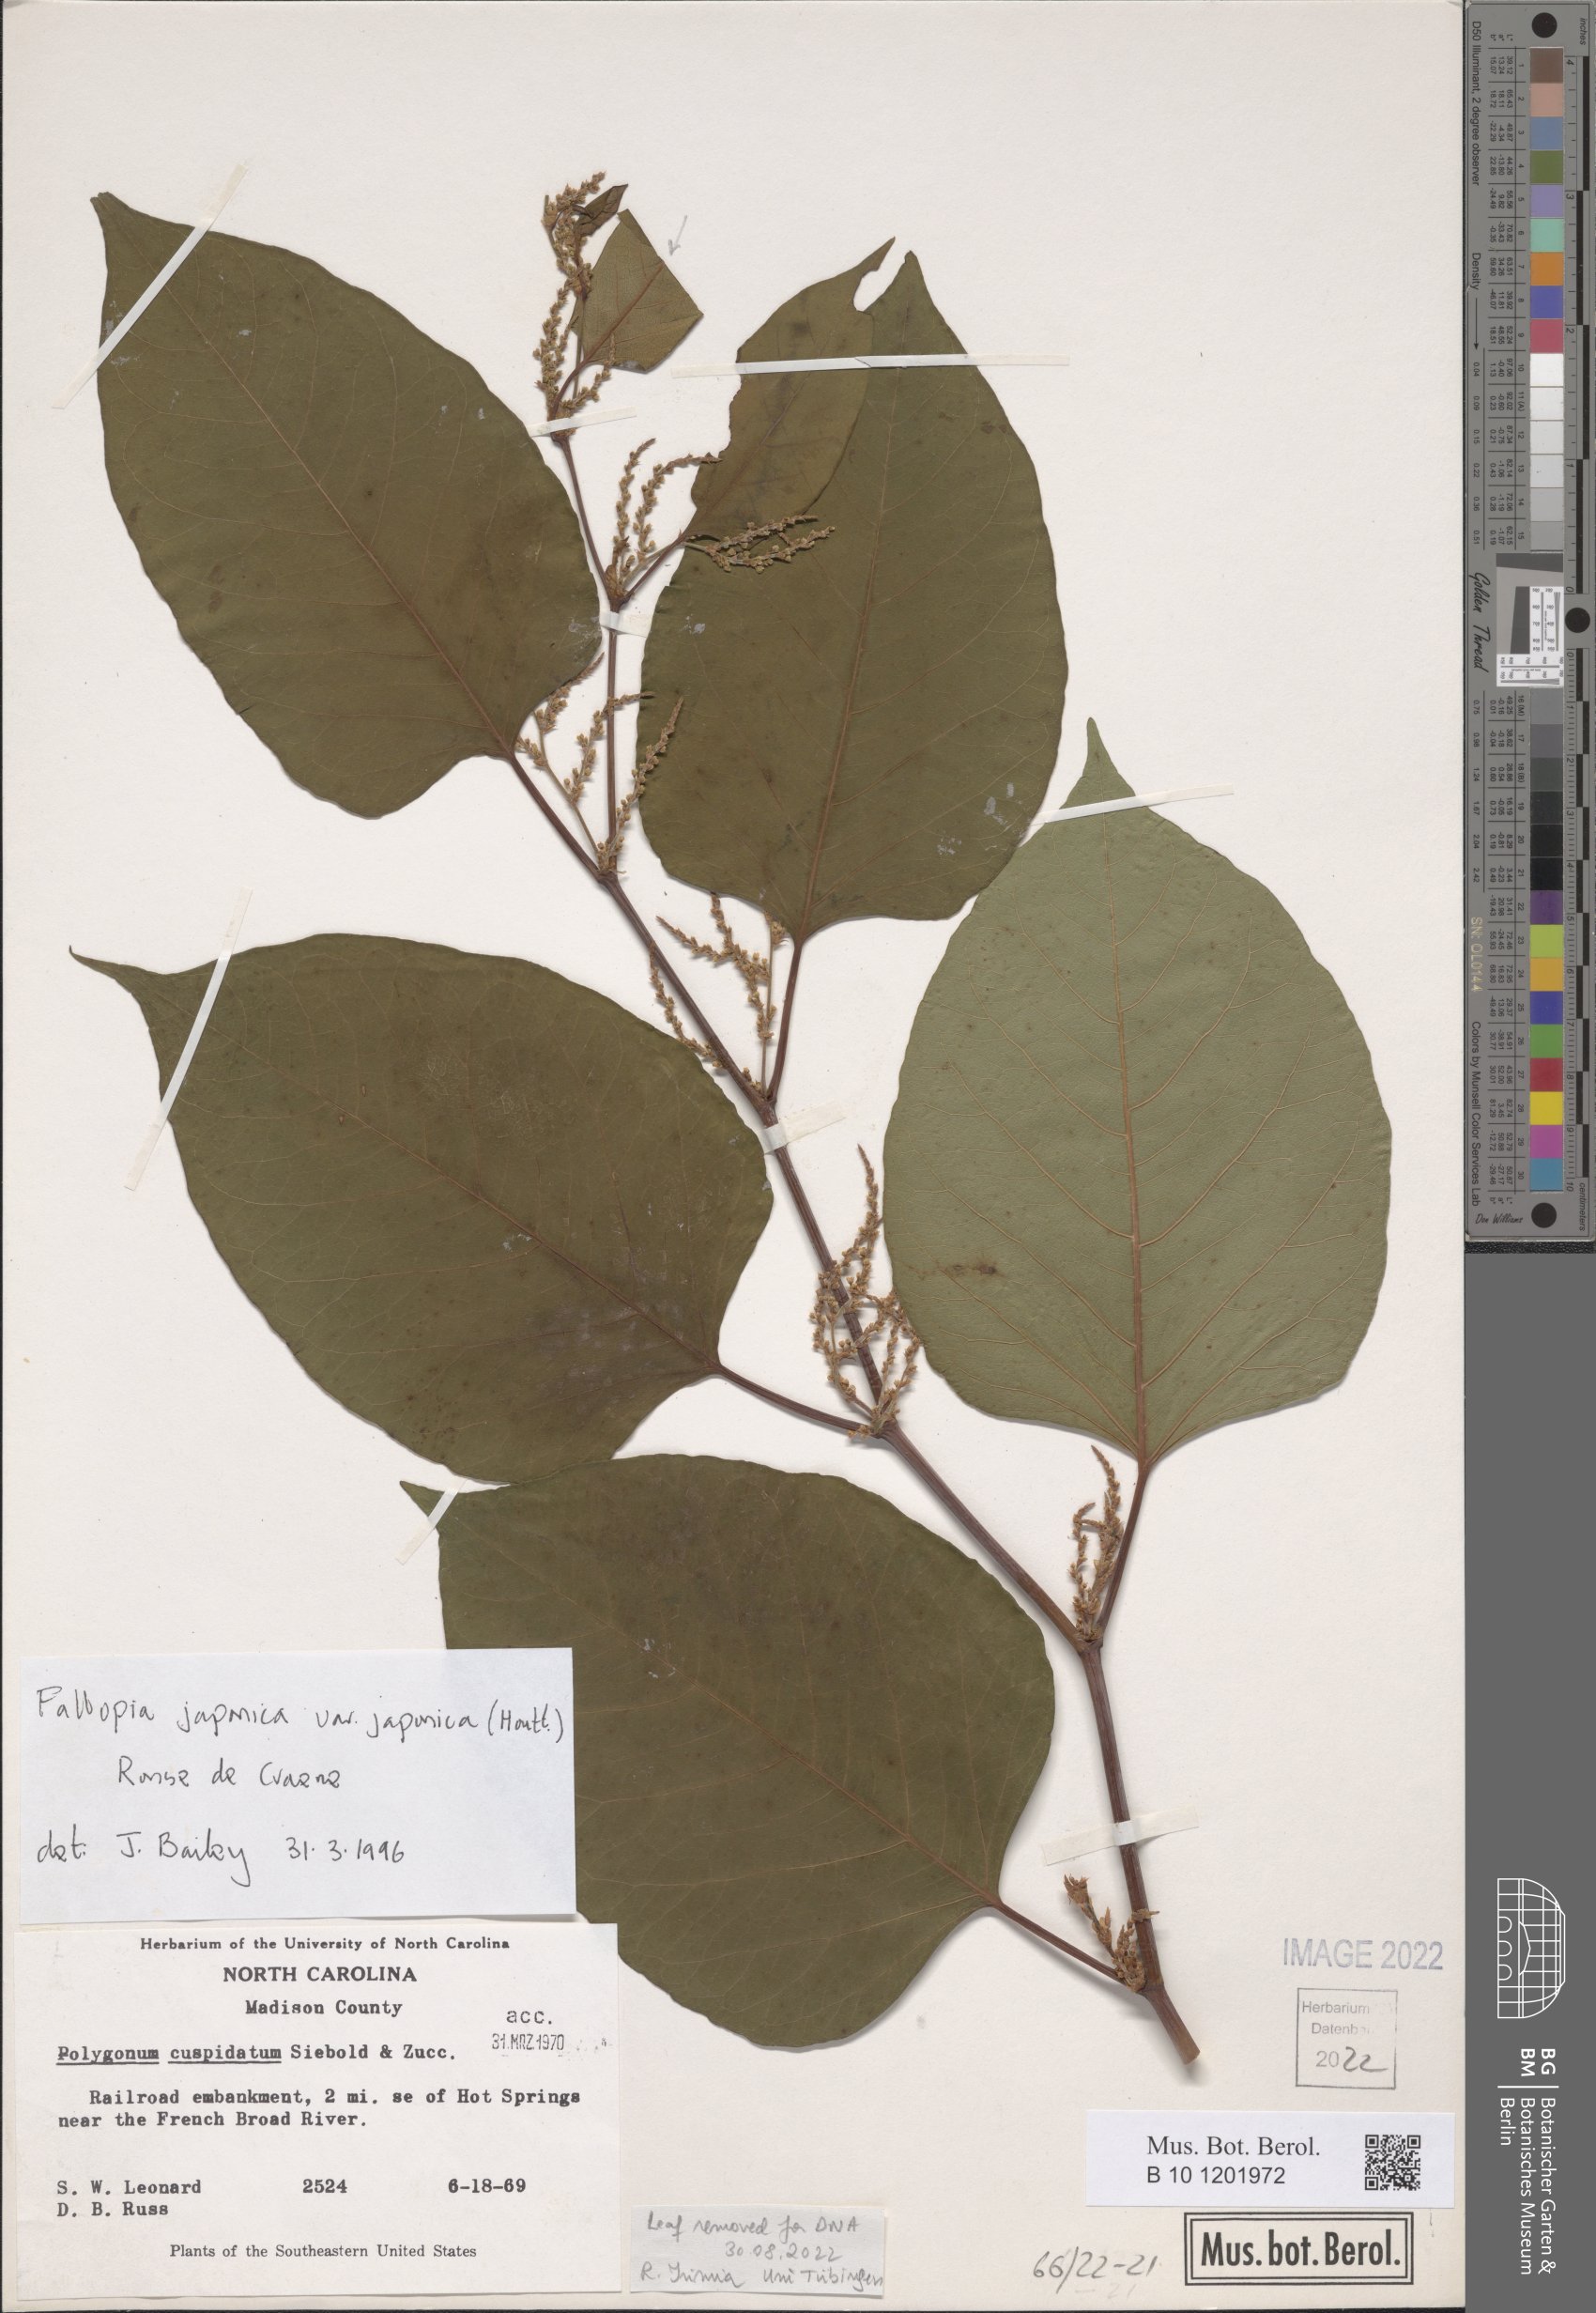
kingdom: Plantae
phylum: Tracheophyta
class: Magnoliopsida
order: Caryophyllales
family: Polygonaceae
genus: Reynoutria
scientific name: Reynoutria japonica
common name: Japanese knotweed
